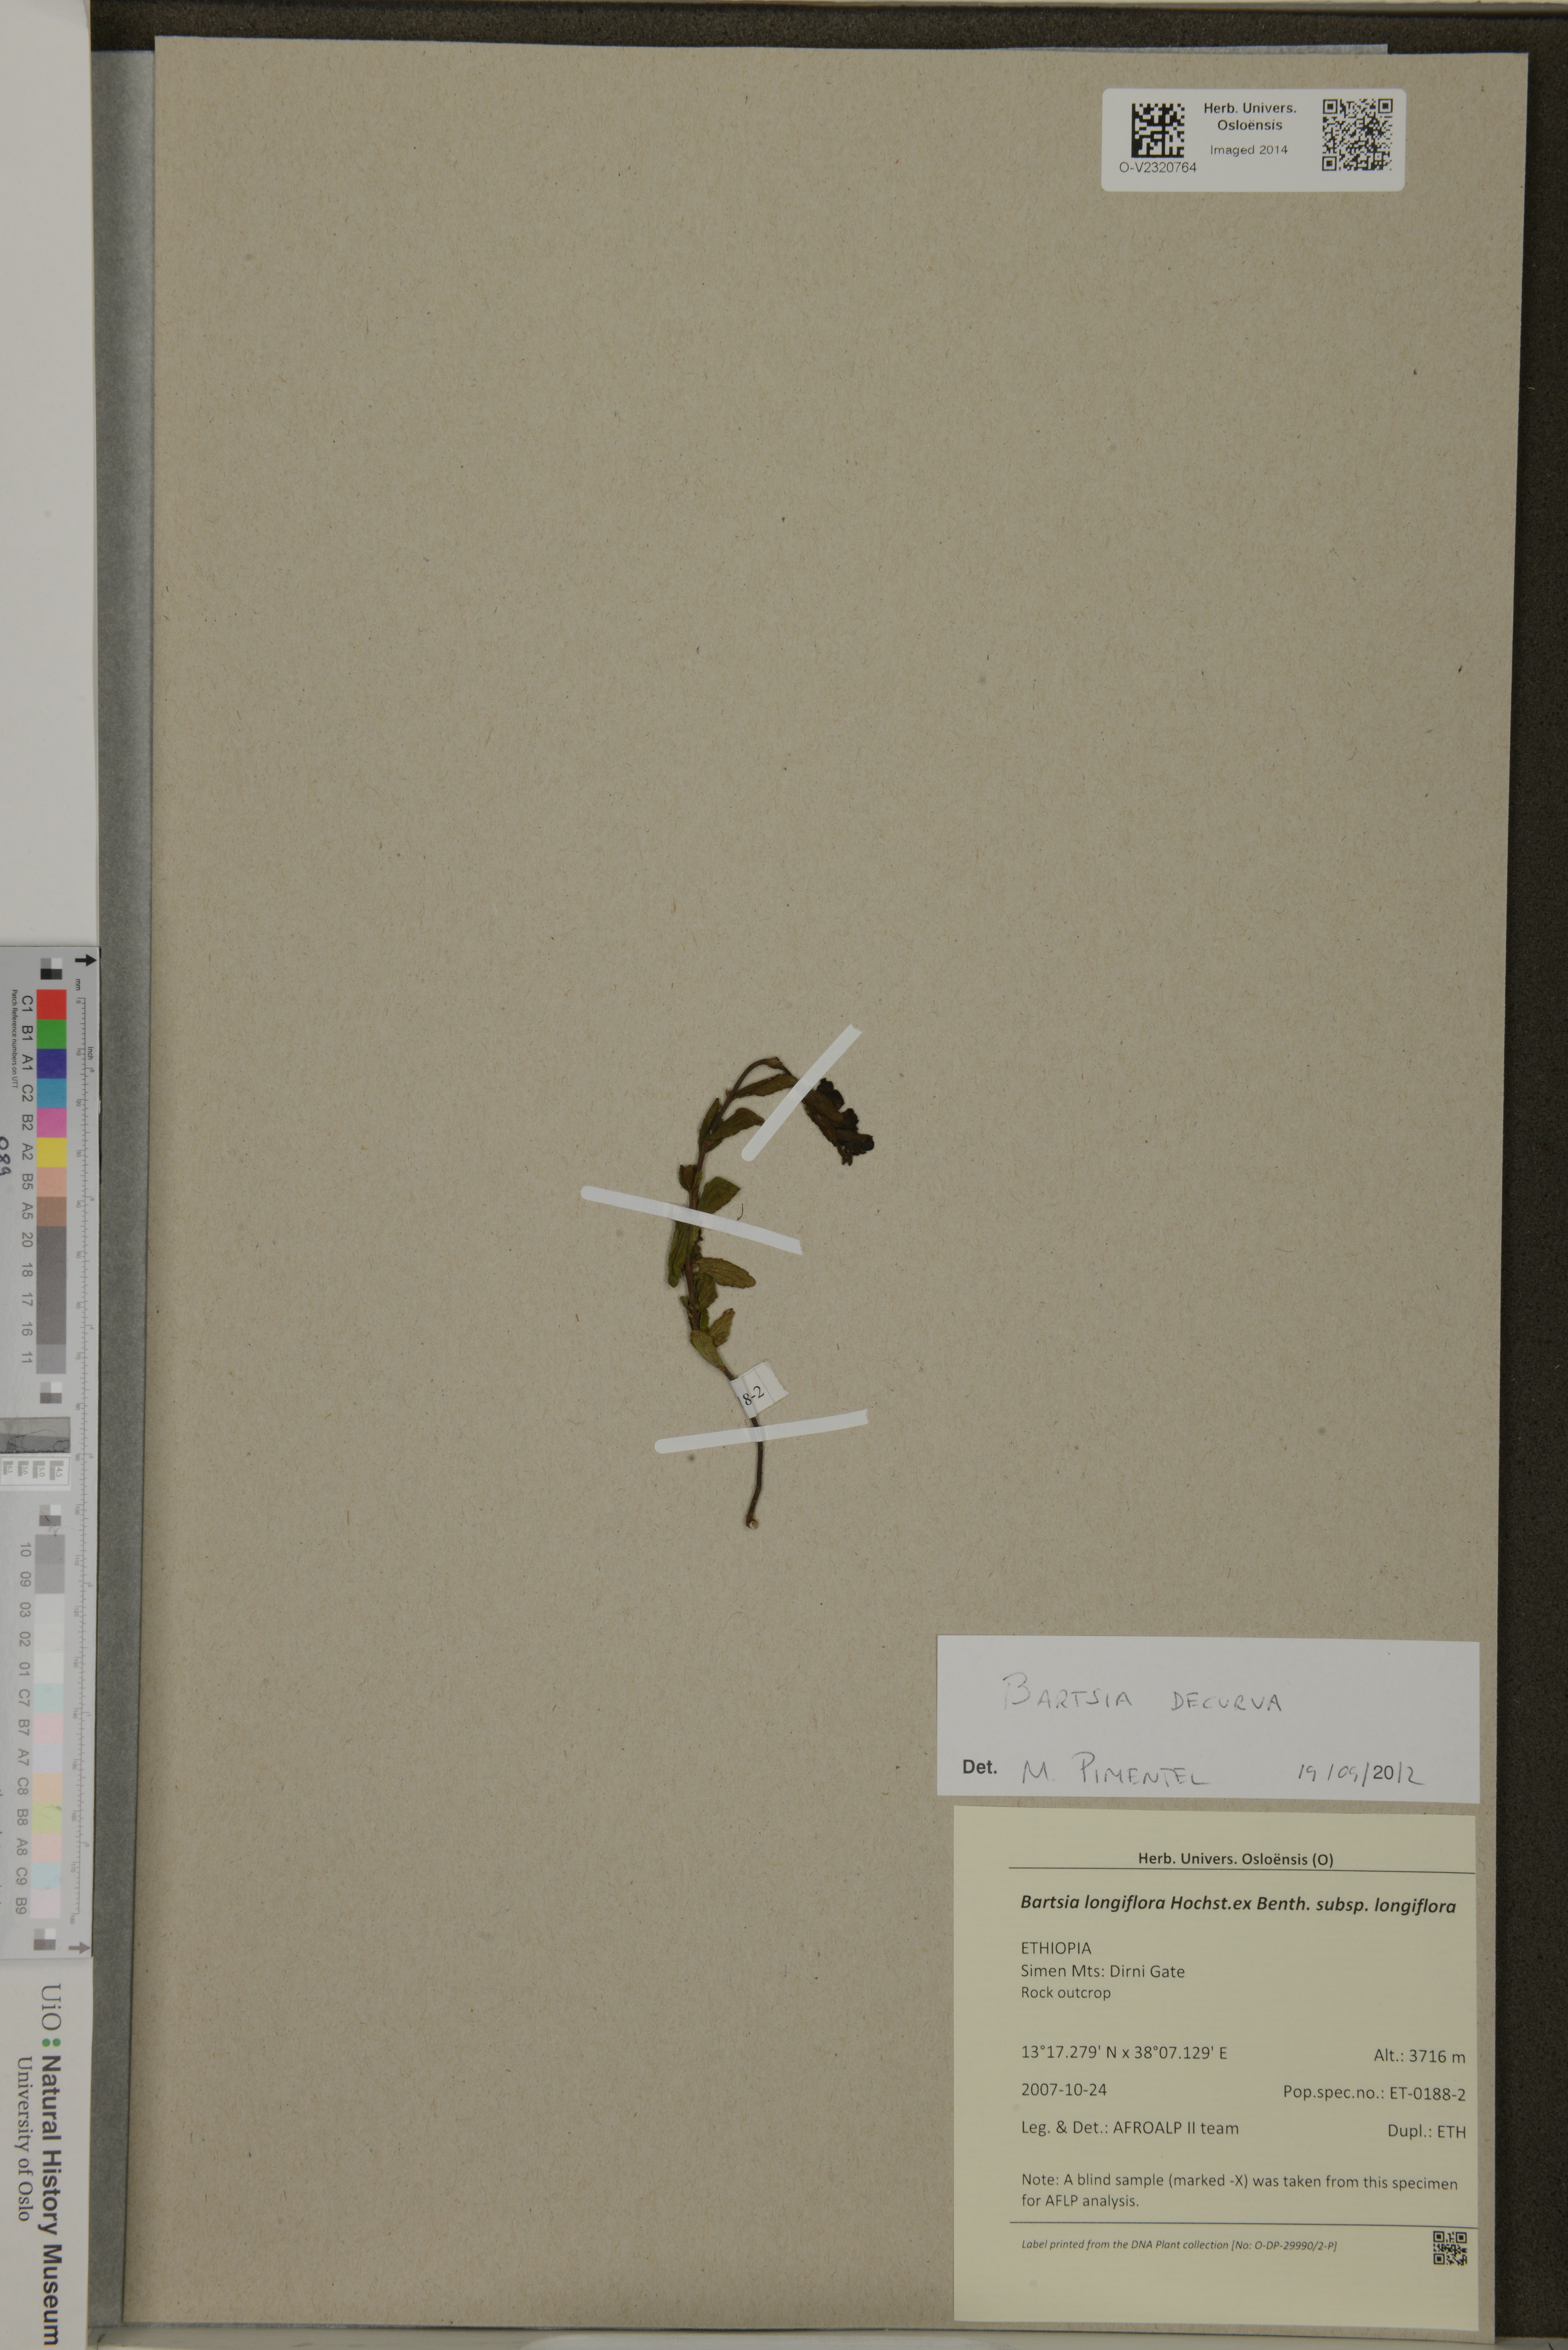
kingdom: Plantae
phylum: Tracheophyta
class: Magnoliopsida
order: Lamiales
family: Orobanchaceae
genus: Hedbergia
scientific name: Hedbergia longiflora
